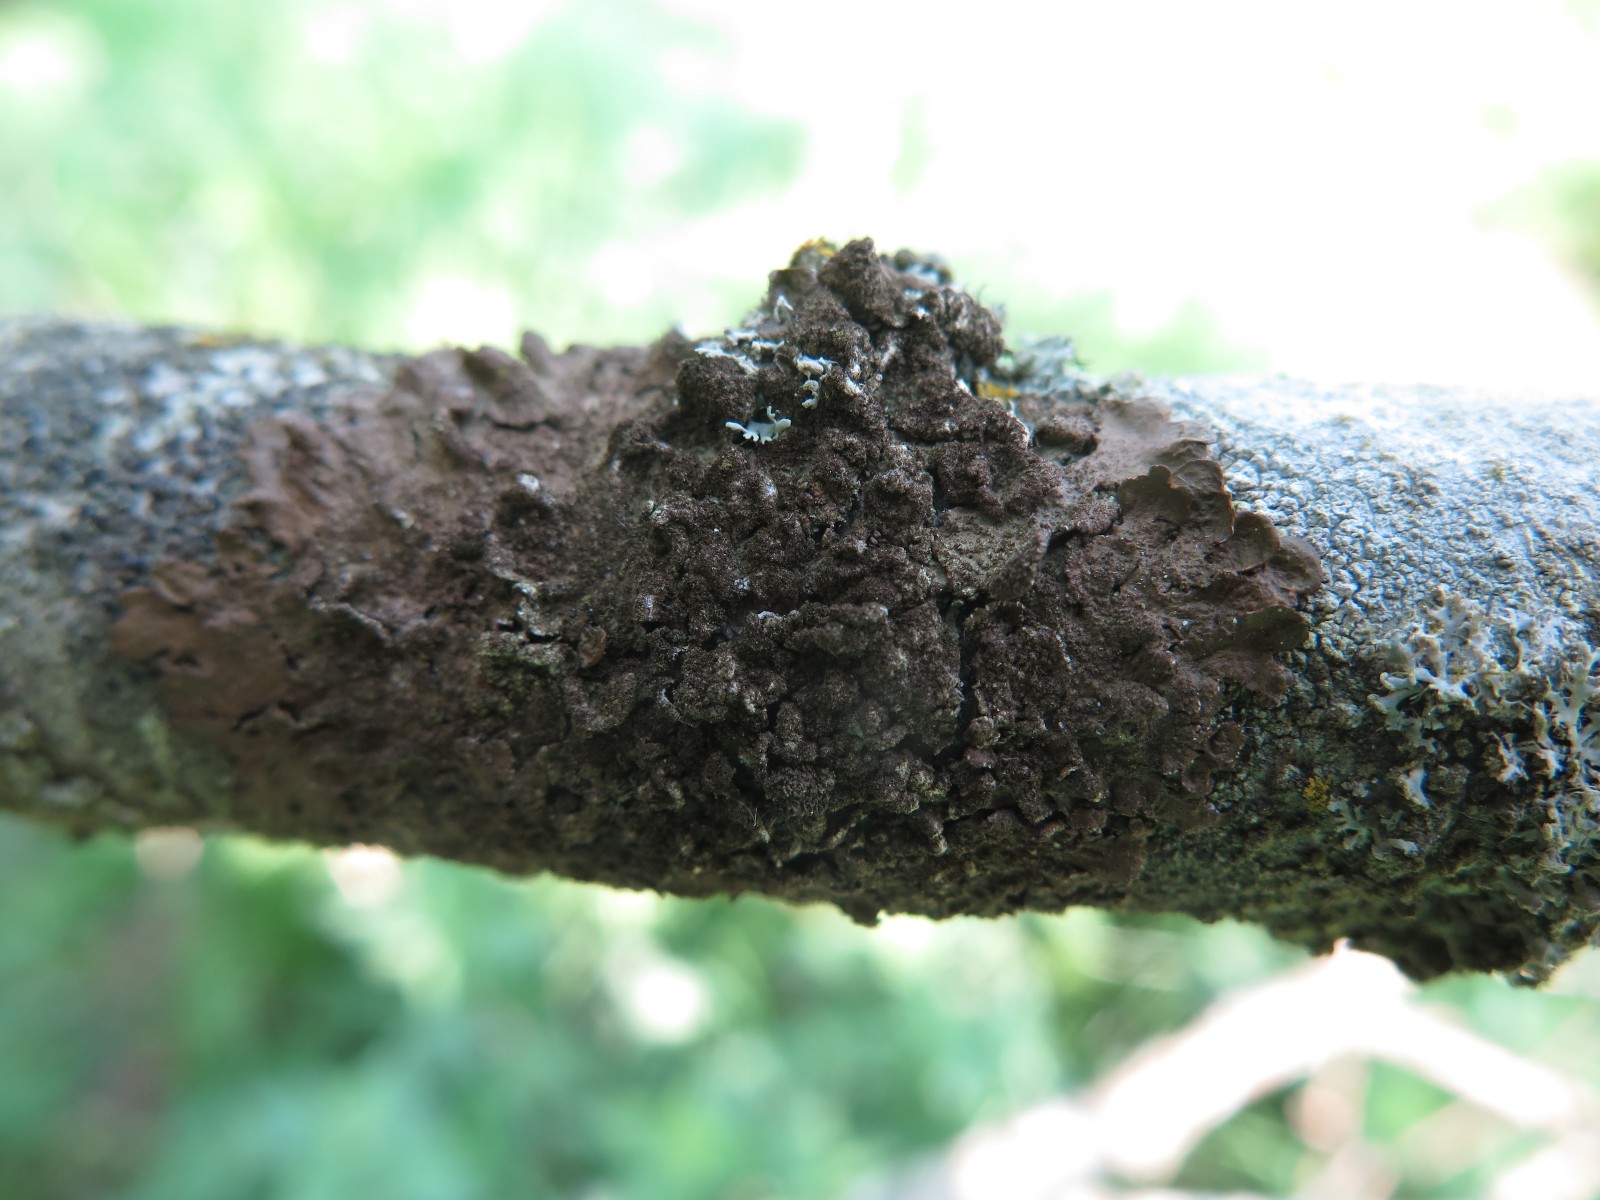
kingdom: Fungi
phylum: Ascomycota
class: Lecanoromycetes
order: Lecanorales
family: Parmeliaceae
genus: Melanelixia
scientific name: Melanelixia subaurifera
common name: guldpudret skållav
